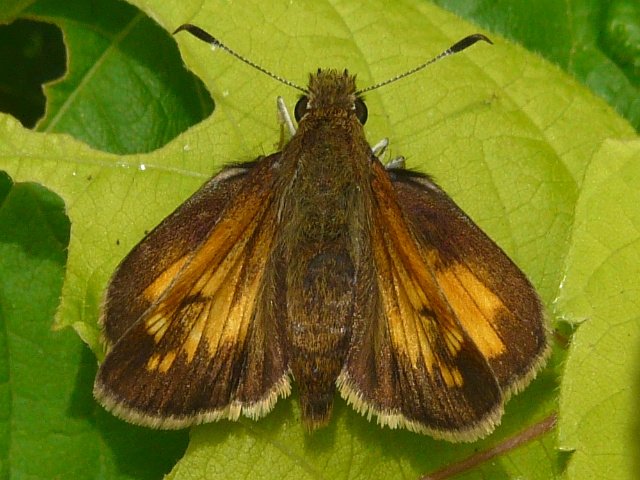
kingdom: Animalia
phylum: Arthropoda
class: Insecta
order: Lepidoptera
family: Hesperiidae
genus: Lon
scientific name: Lon hobomok
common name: Hobomok Skipper
